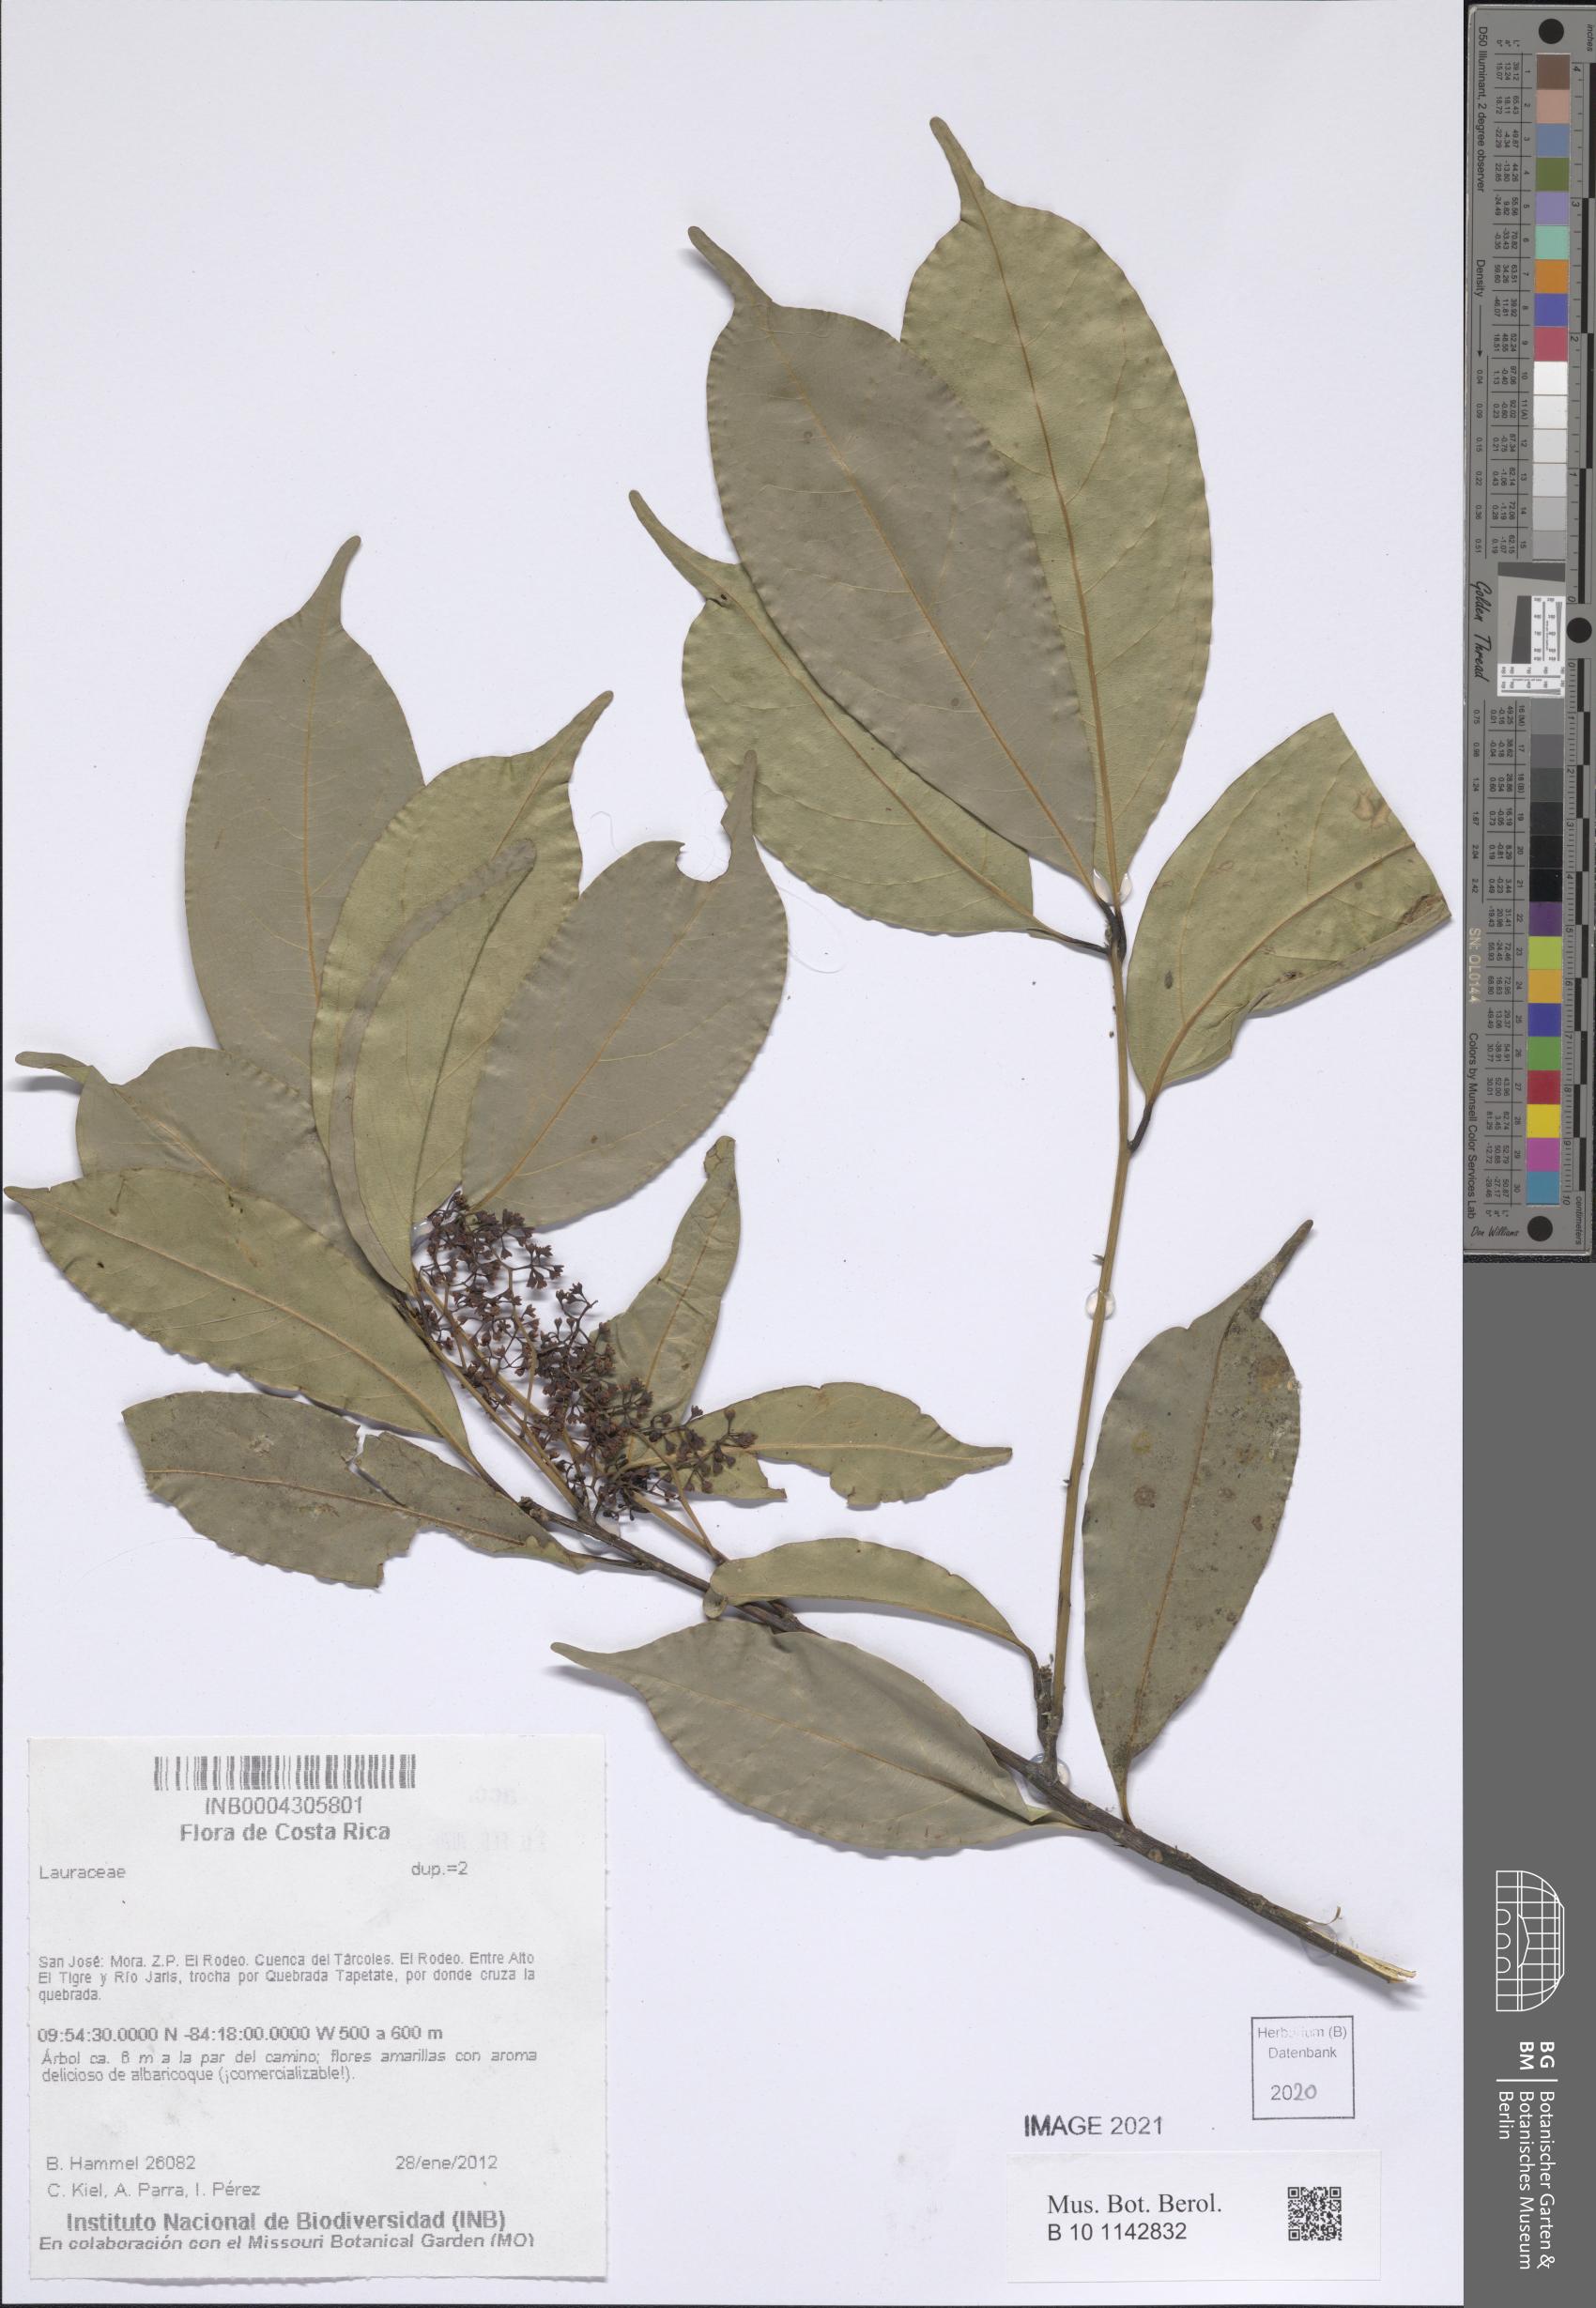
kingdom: Plantae
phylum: Tracheophyta
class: Magnoliopsida
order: Laurales
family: Lauraceae
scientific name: Lauraceae
